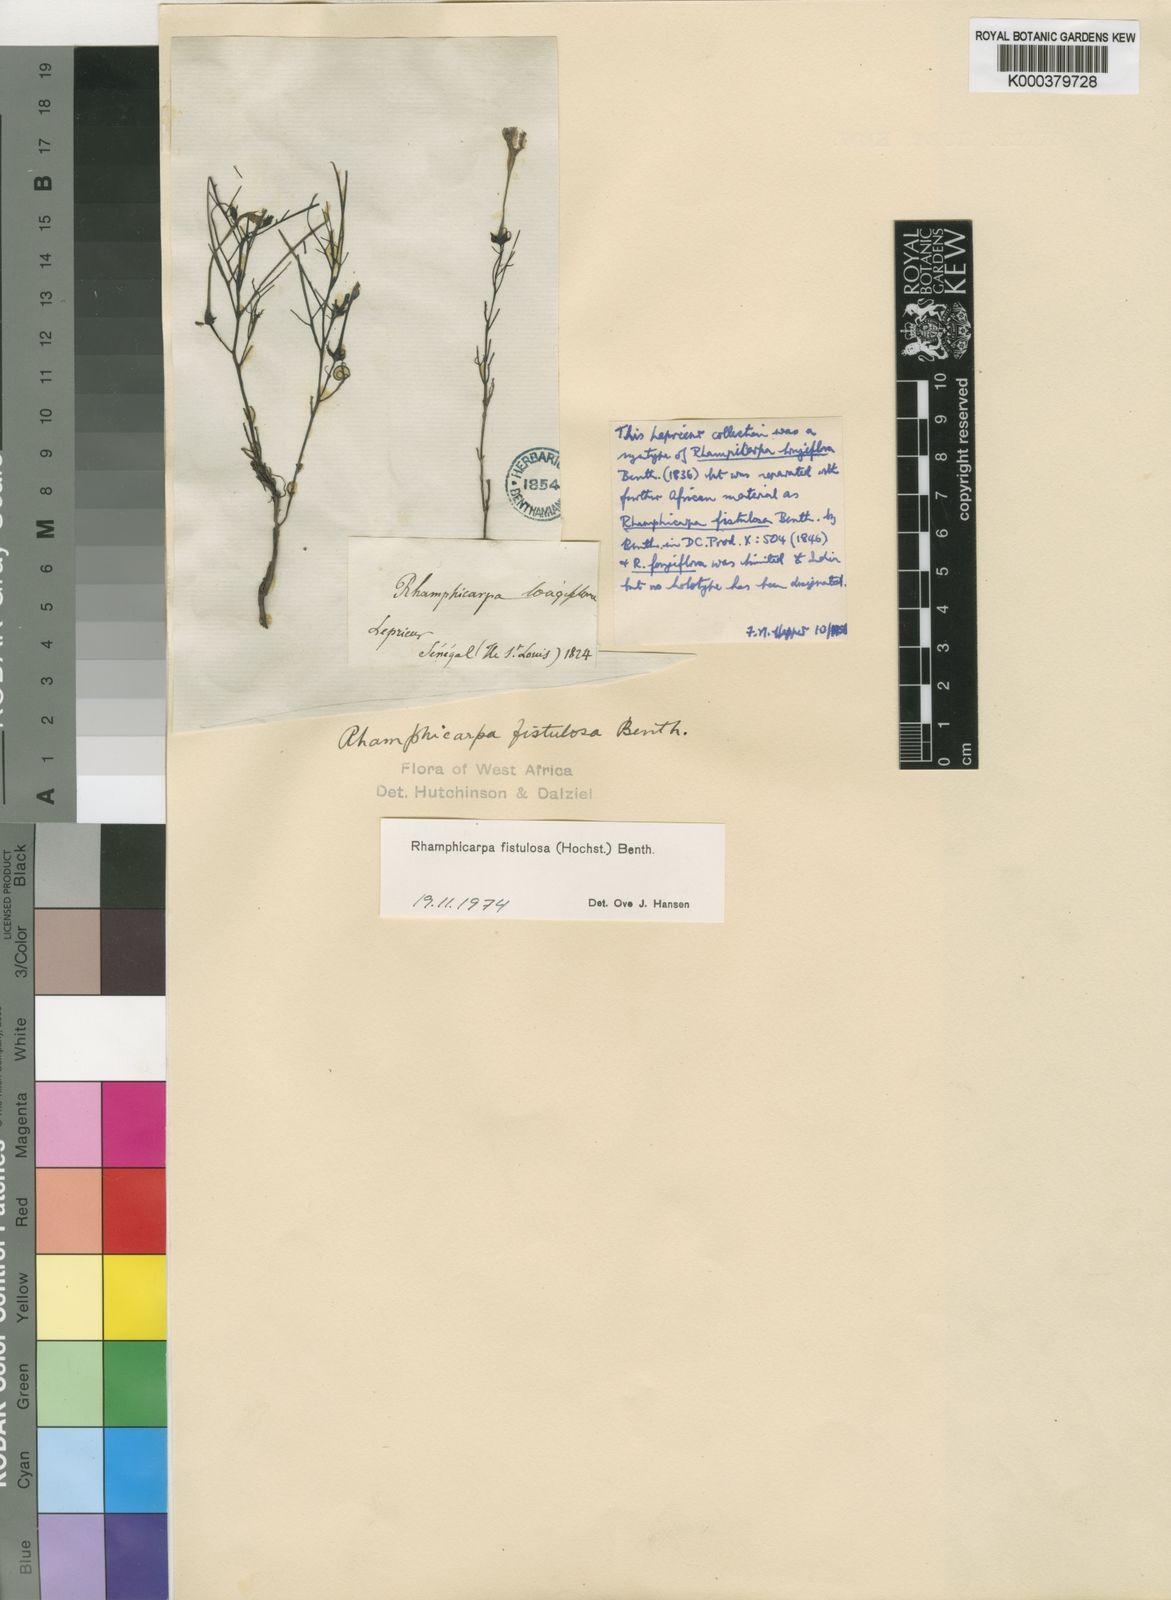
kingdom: Plantae
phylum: Tracheophyta
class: Magnoliopsida
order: Lamiales
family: Orobanchaceae
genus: Rhamphicarpa
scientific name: Rhamphicarpa fistulosa
